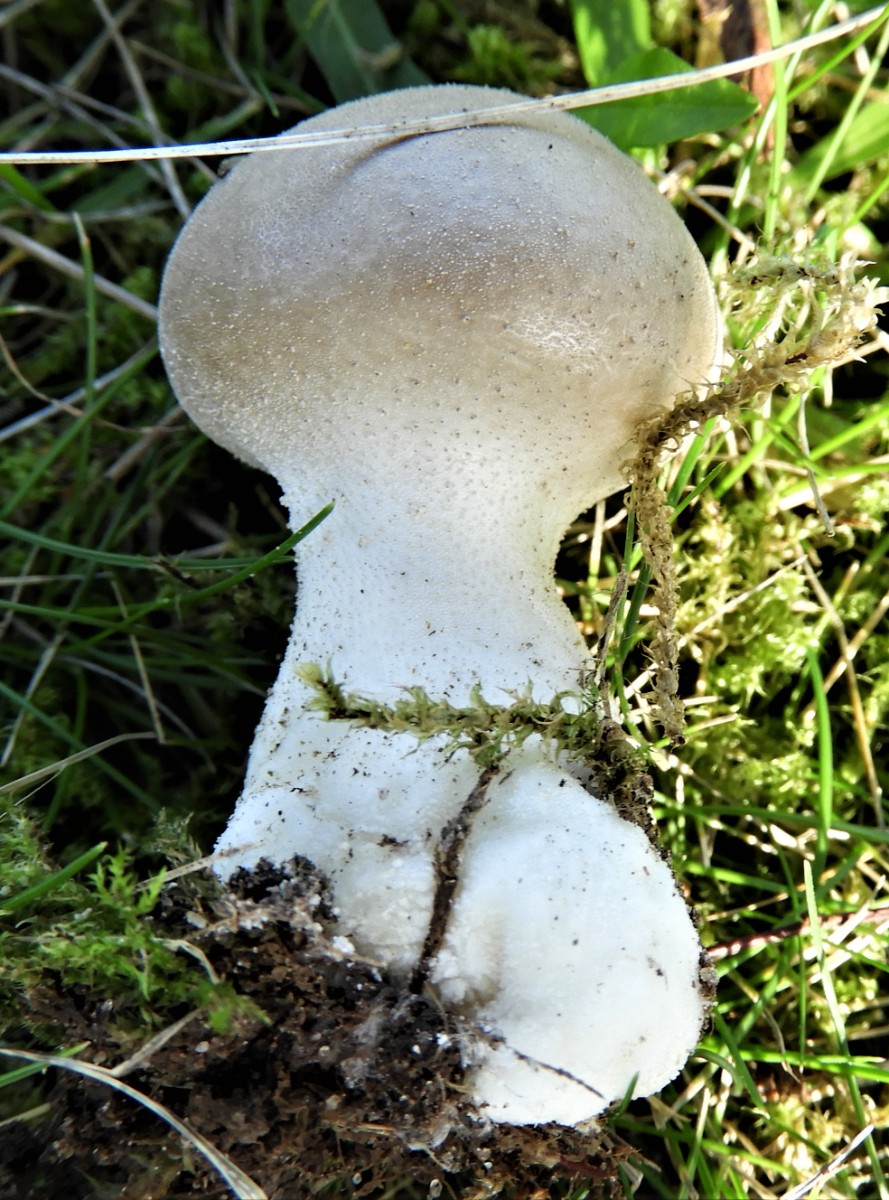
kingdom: Fungi
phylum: Basidiomycota
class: Agaricomycetes
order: Agaricales
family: Lycoperdaceae
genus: Lycoperdon
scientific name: Lycoperdon lividum
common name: mark-støvbold
